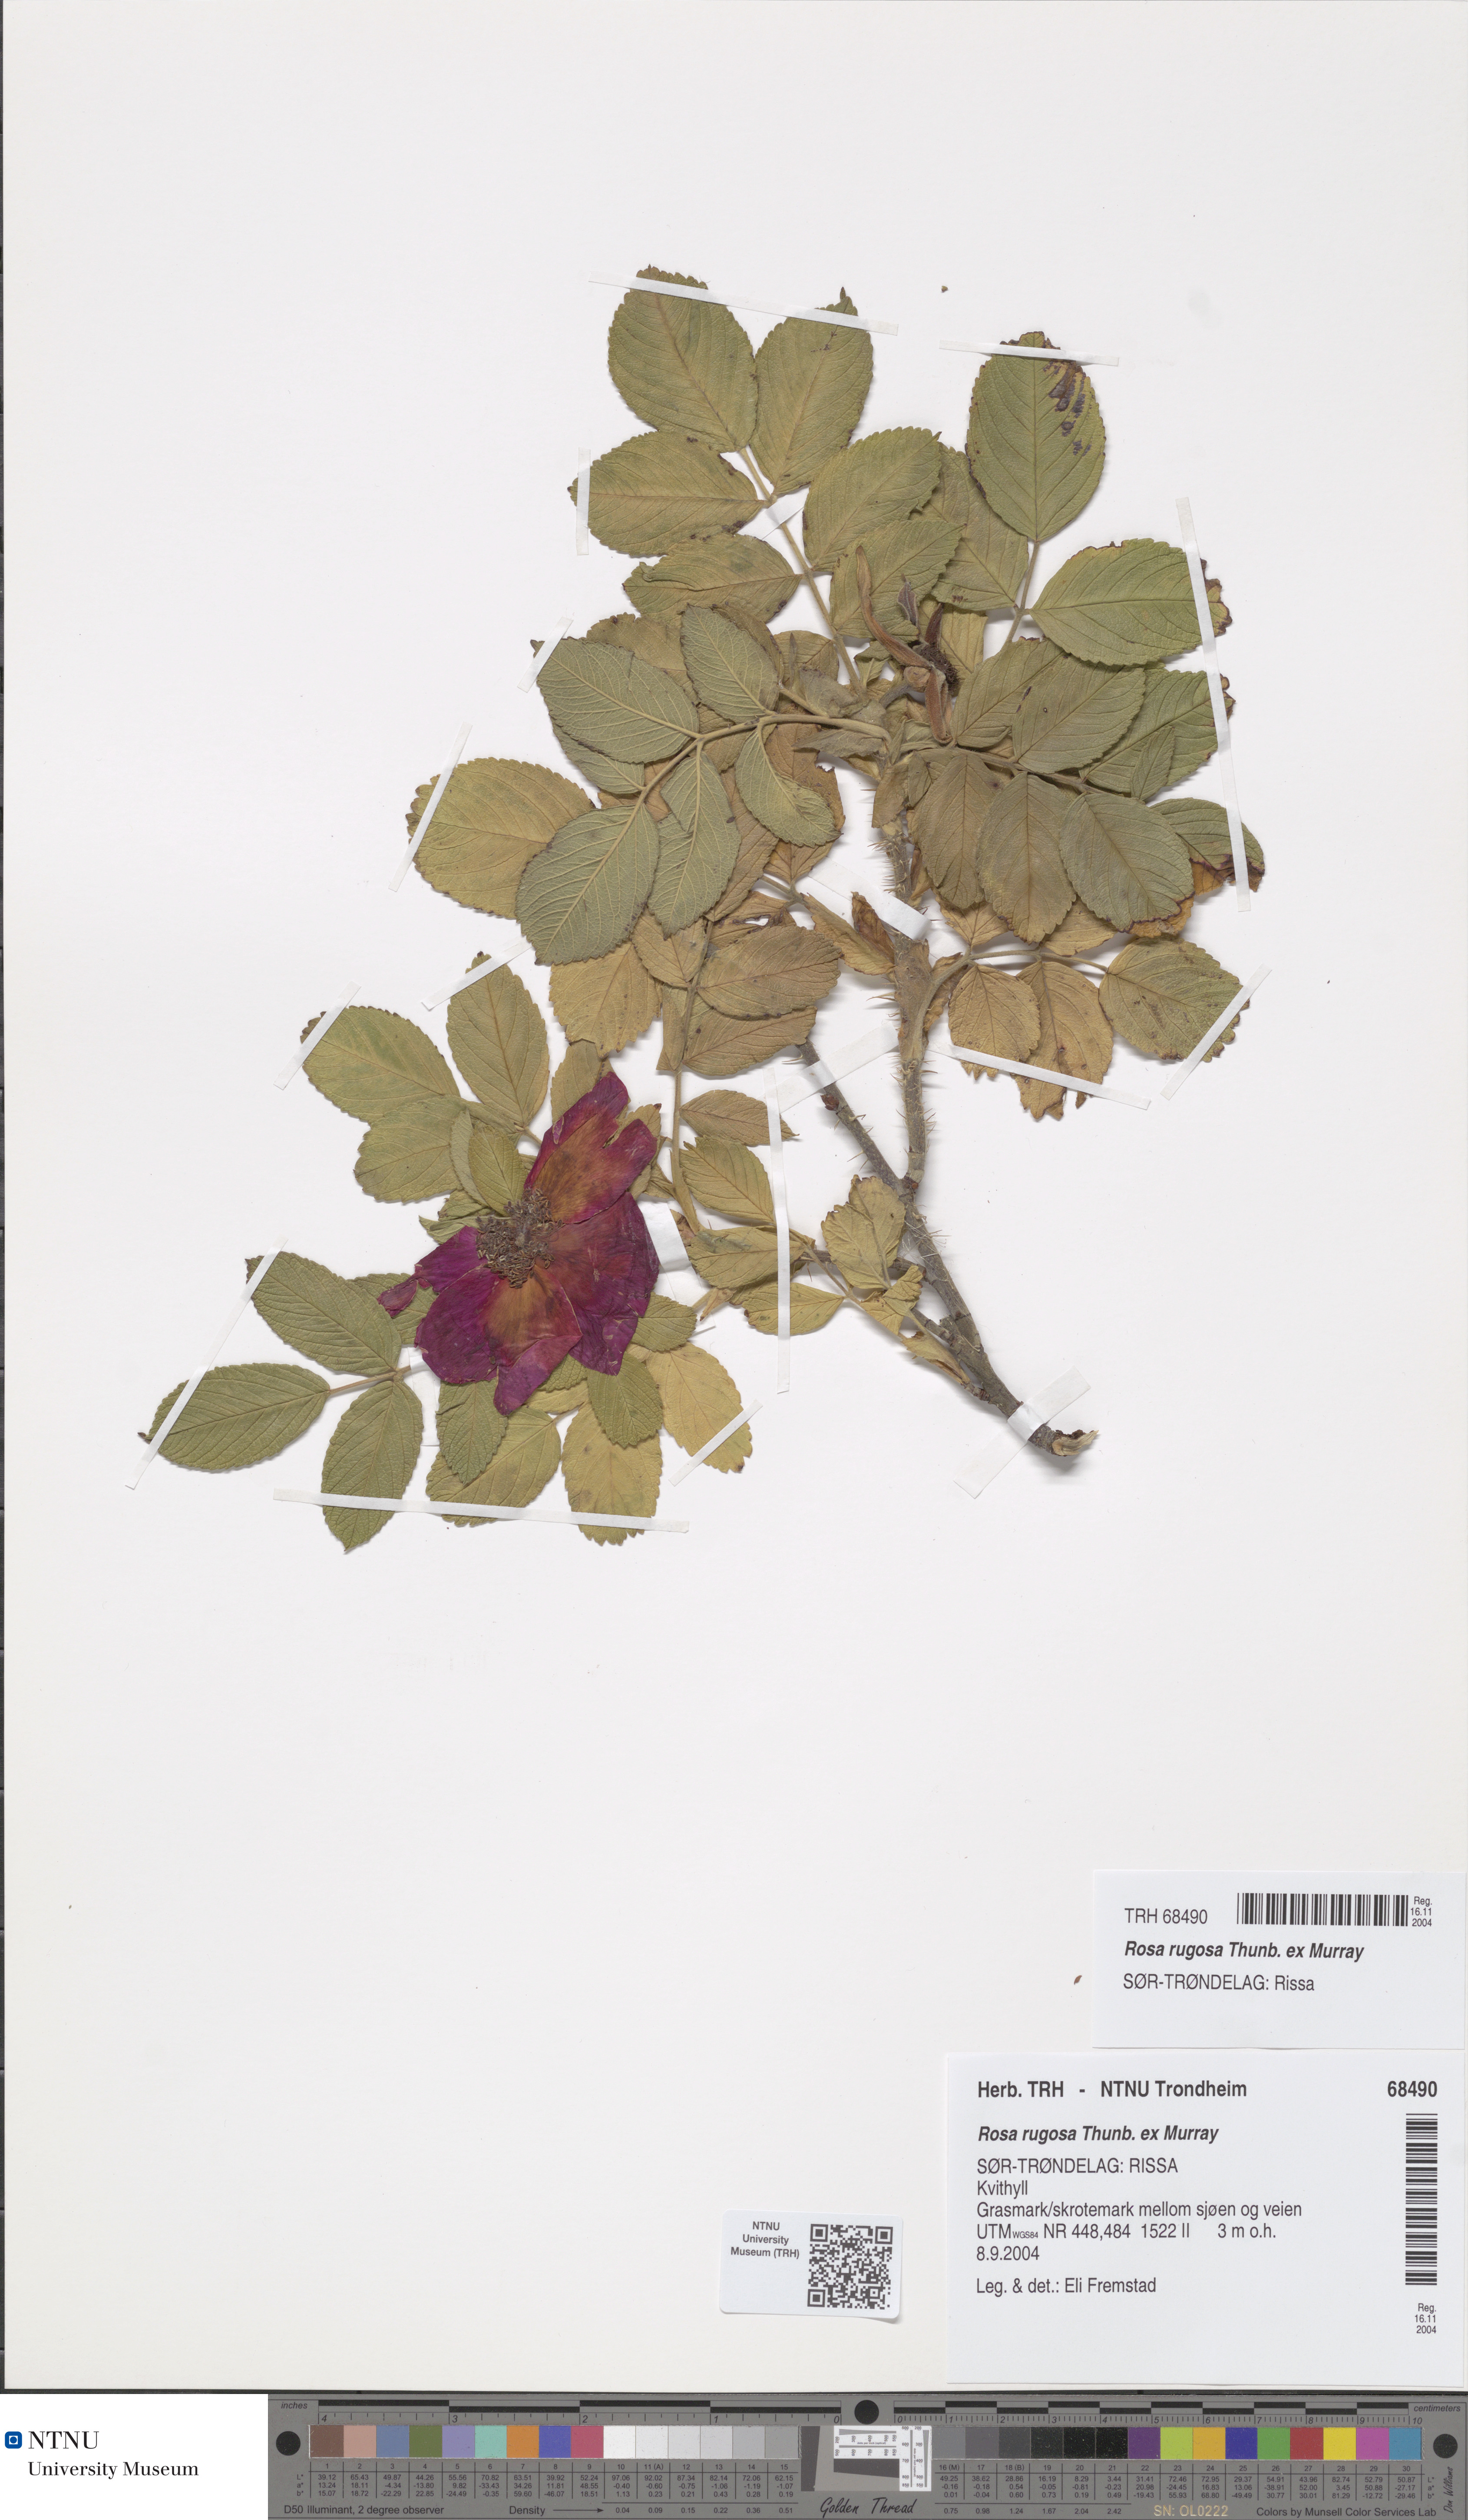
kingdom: Plantae
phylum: Tracheophyta
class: Magnoliopsida
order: Rosales
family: Rosaceae
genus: Rosa
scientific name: Rosa rugosa
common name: Japanese rose
